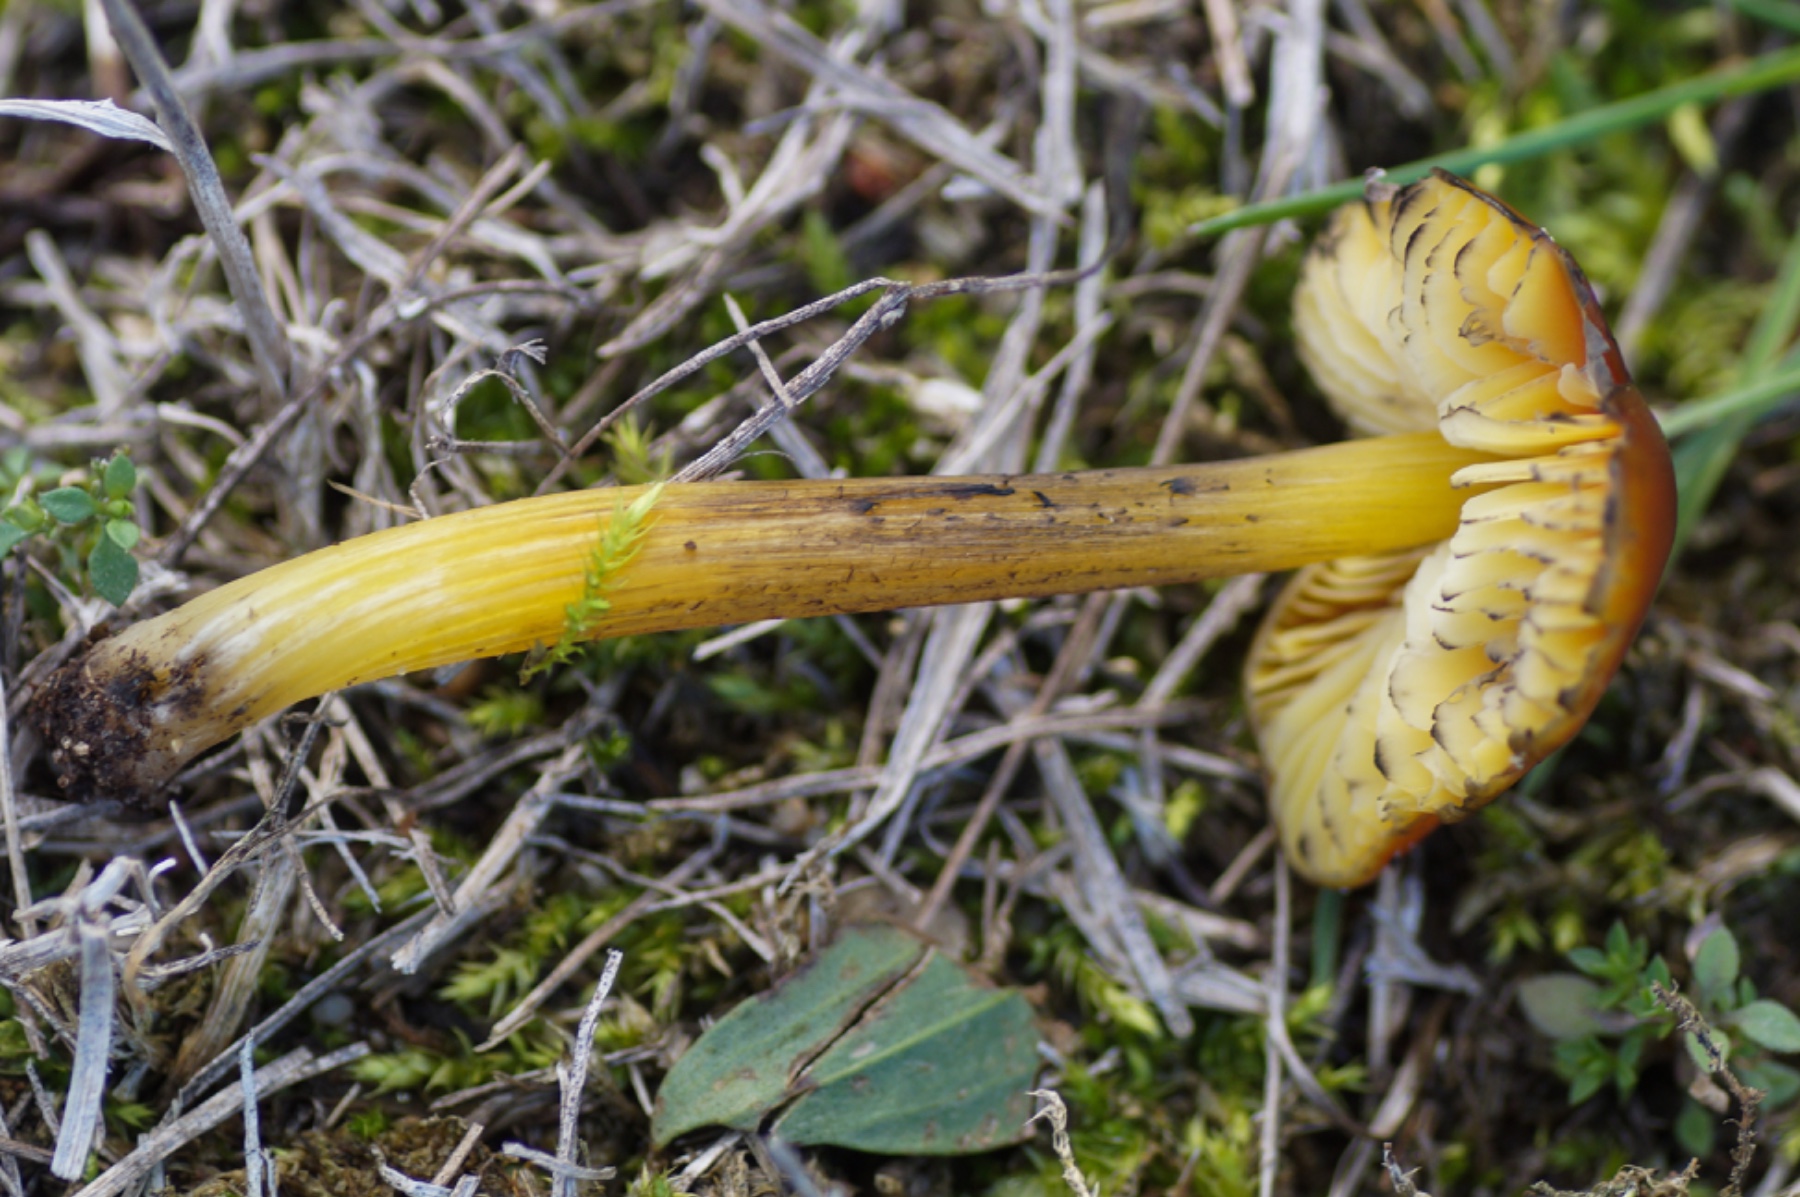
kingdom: Fungi
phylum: Basidiomycota
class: Agaricomycetes
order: Agaricales
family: Hygrophoraceae
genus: Hygrocybe
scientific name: Hygrocybe conica
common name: kegle-vokshat
